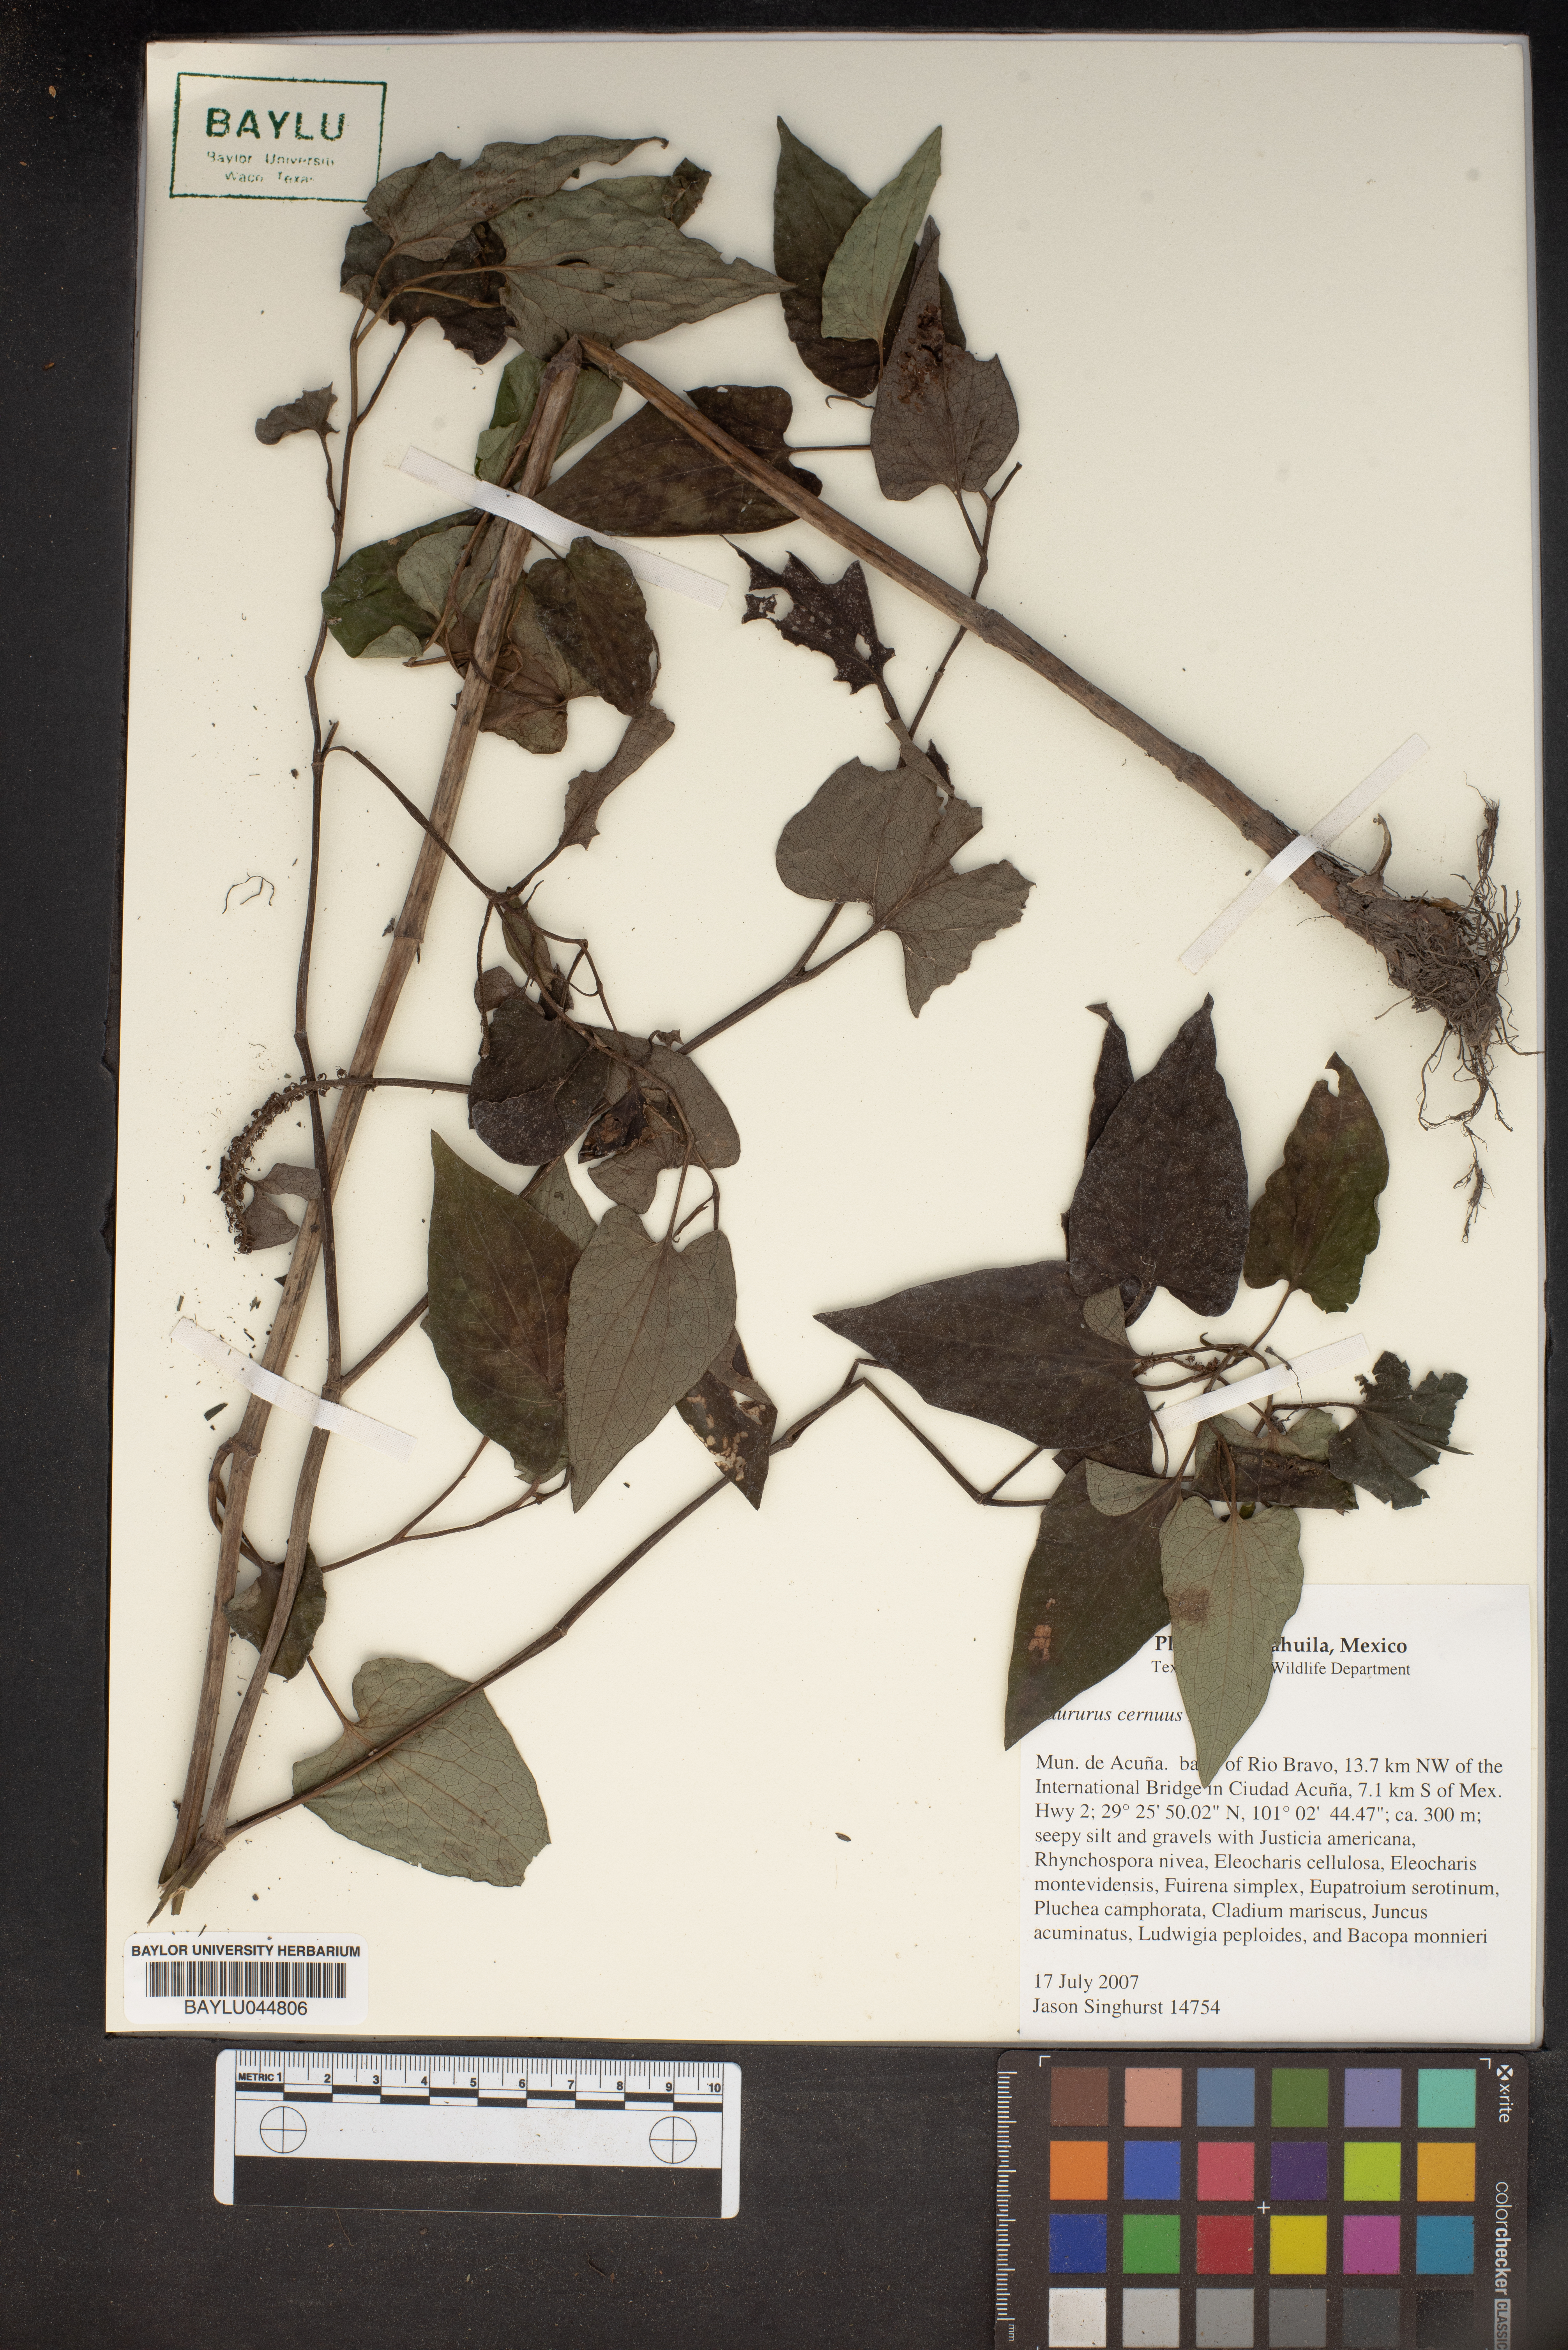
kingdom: Plantae
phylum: Tracheophyta
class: Magnoliopsida
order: Piperales
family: Saururaceae
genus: Saururus
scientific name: Saururus cernuus
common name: Lizard's-tail
